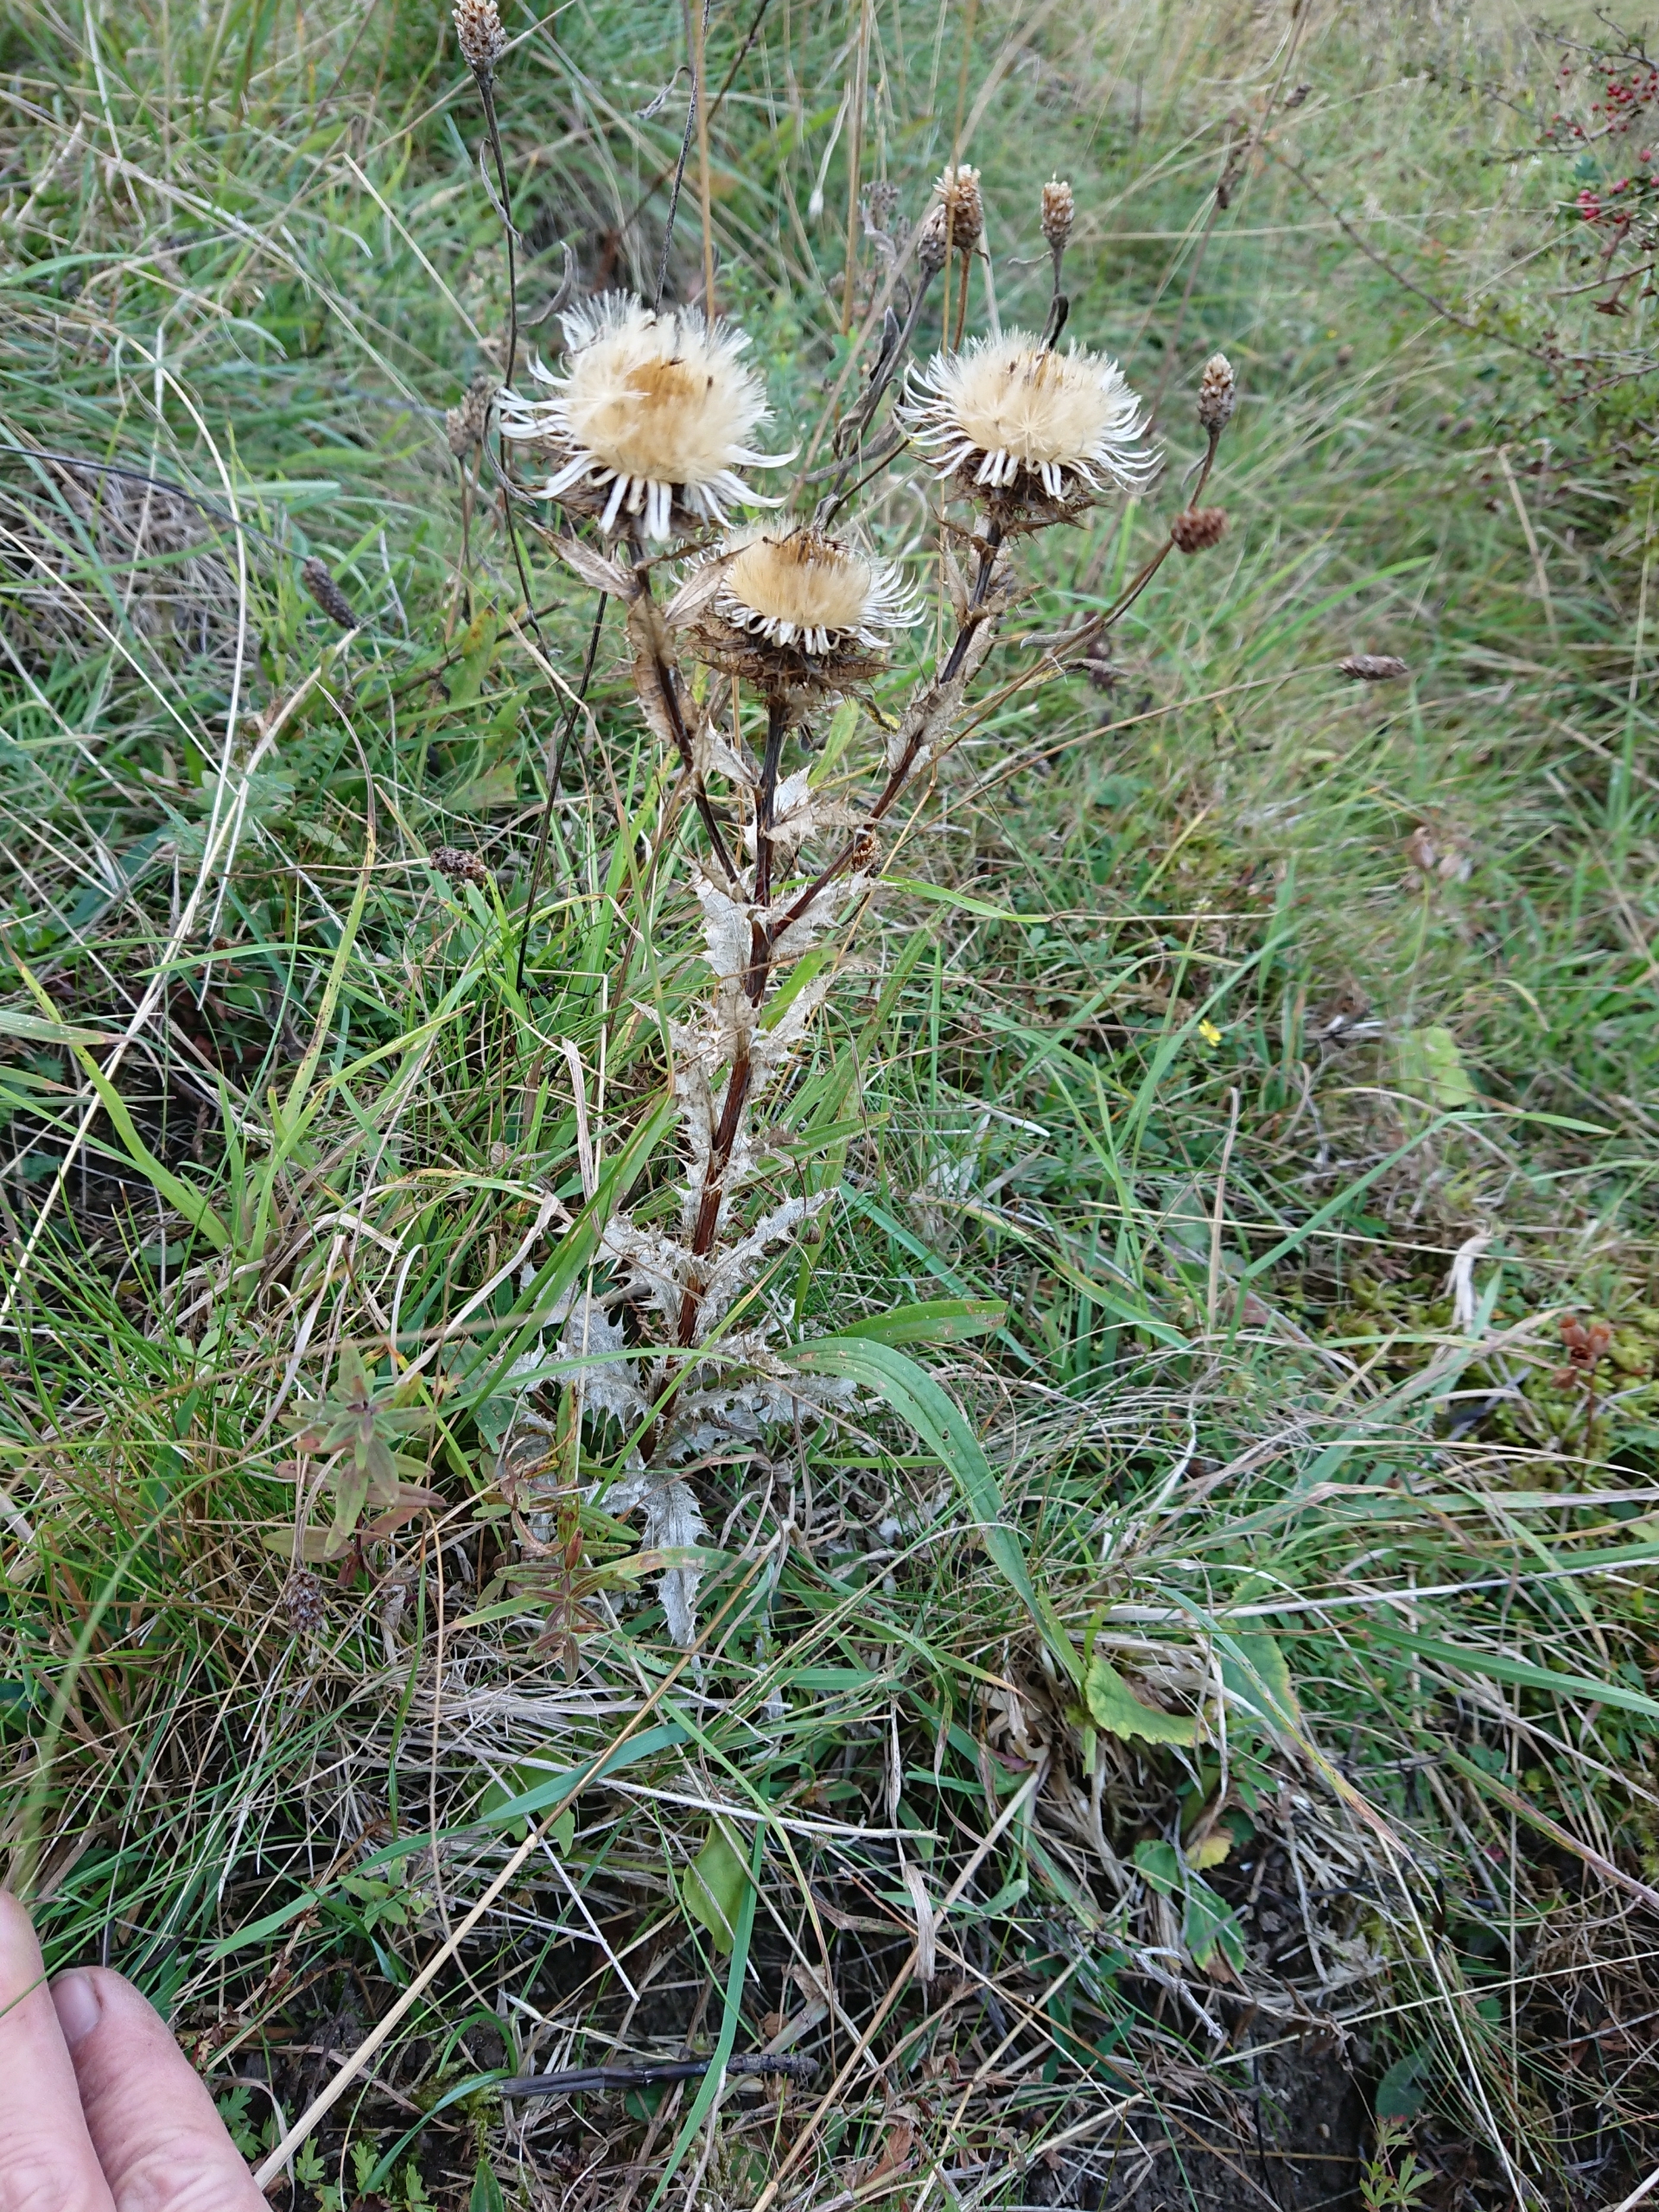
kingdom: Plantae
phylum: Tracheophyta
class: Magnoliopsida
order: Asterales
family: Asteraceae
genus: Carlina
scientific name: Carlina vulgaris
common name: Bakketidsel
